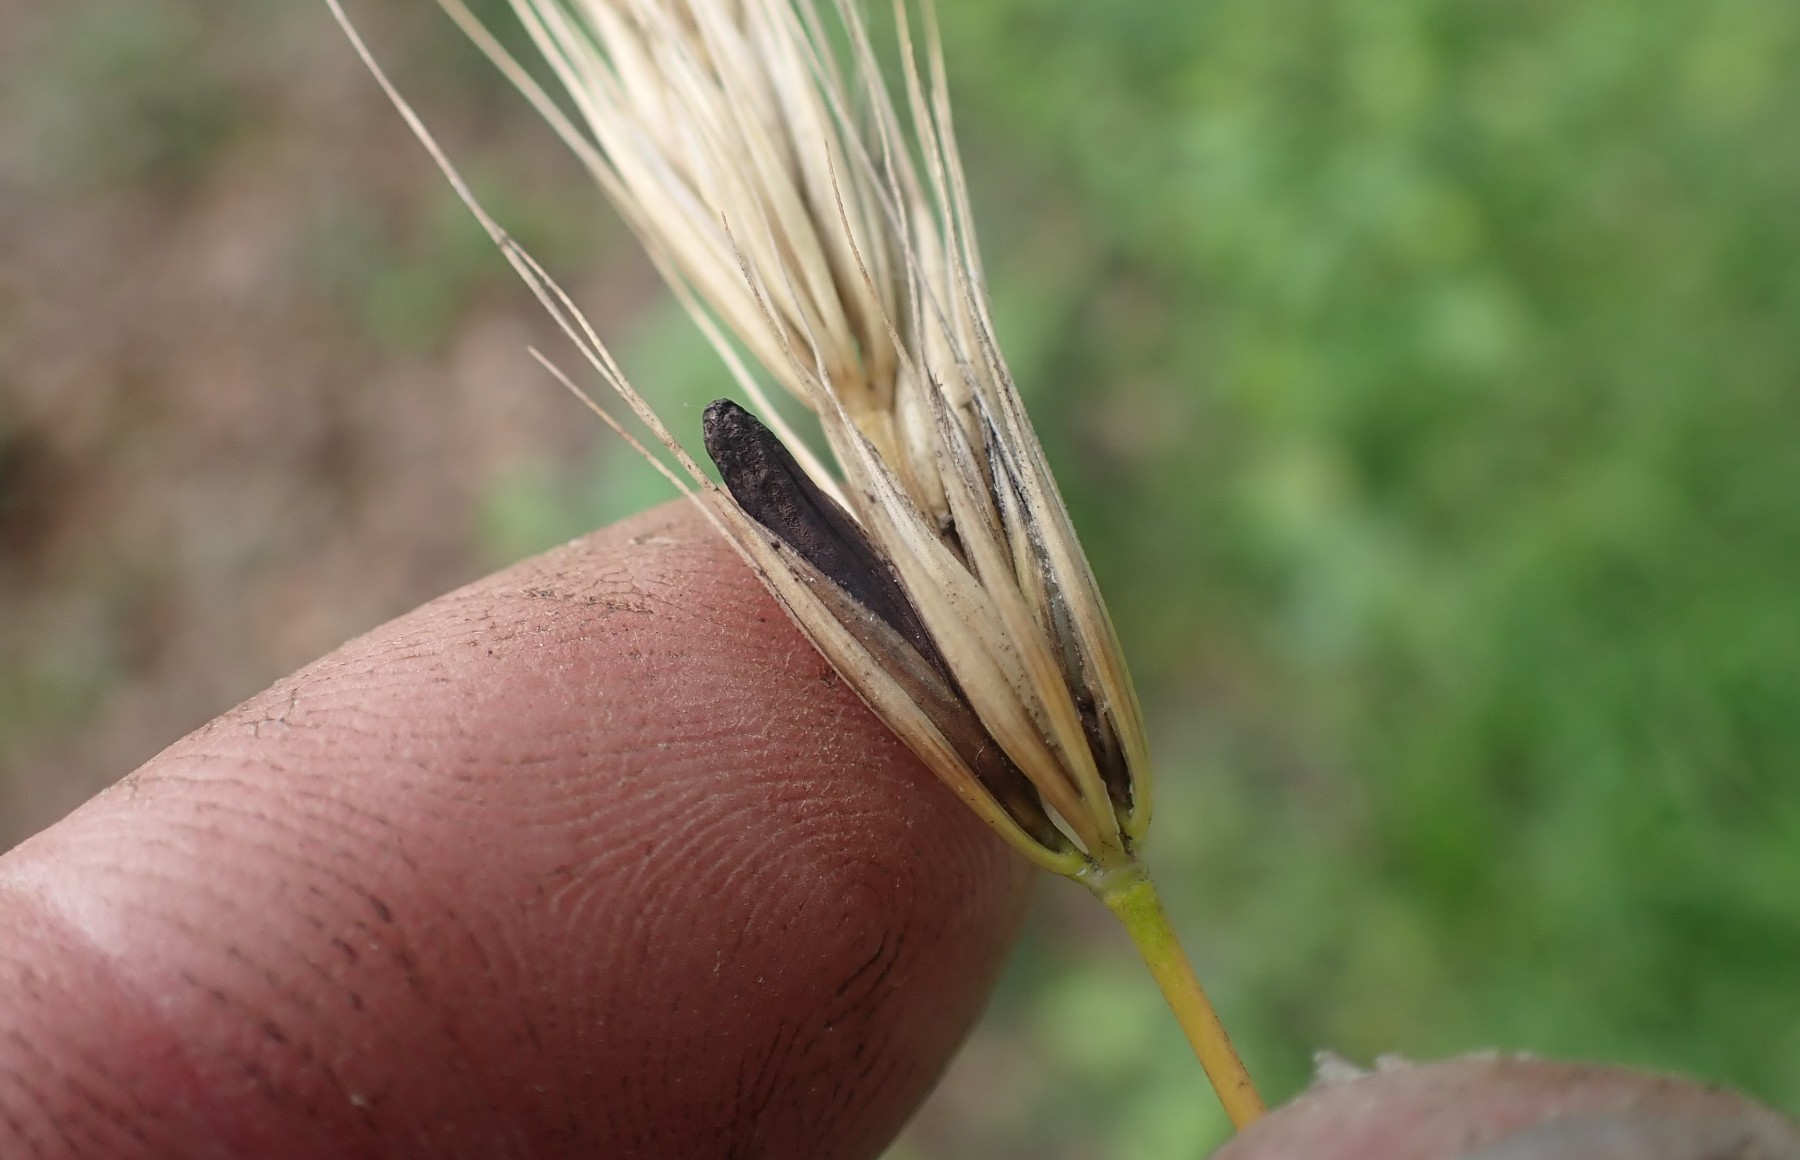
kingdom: Fungi
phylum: Ascomycota
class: Sordariomycetes
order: Hypocreales
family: Clavicipitaceae
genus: Claviceps
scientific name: Claviceps purpurea
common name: almindelig meldrøjer
